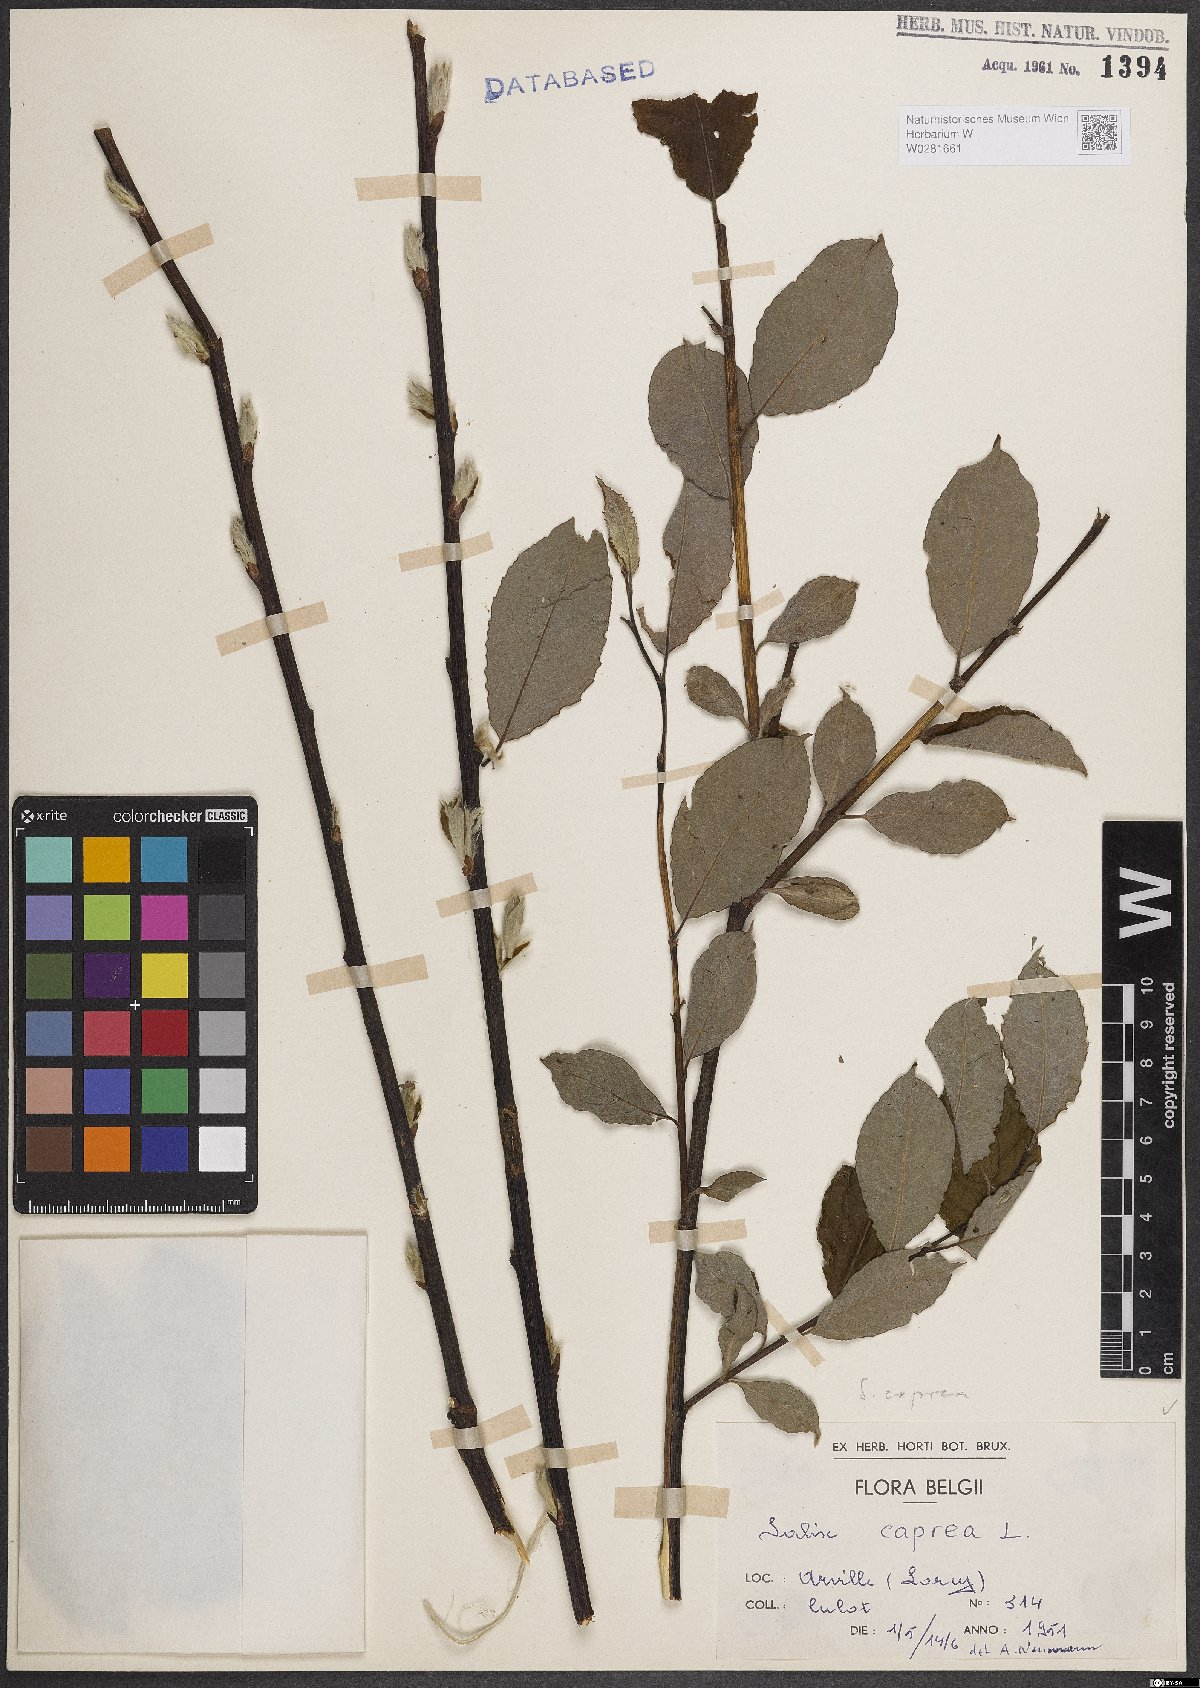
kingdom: Plantae
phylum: Tracheophyta
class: Magnoliopsida
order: Malpighiales
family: Salicaceae
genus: Salix
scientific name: Salix caprea
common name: Goat willow
